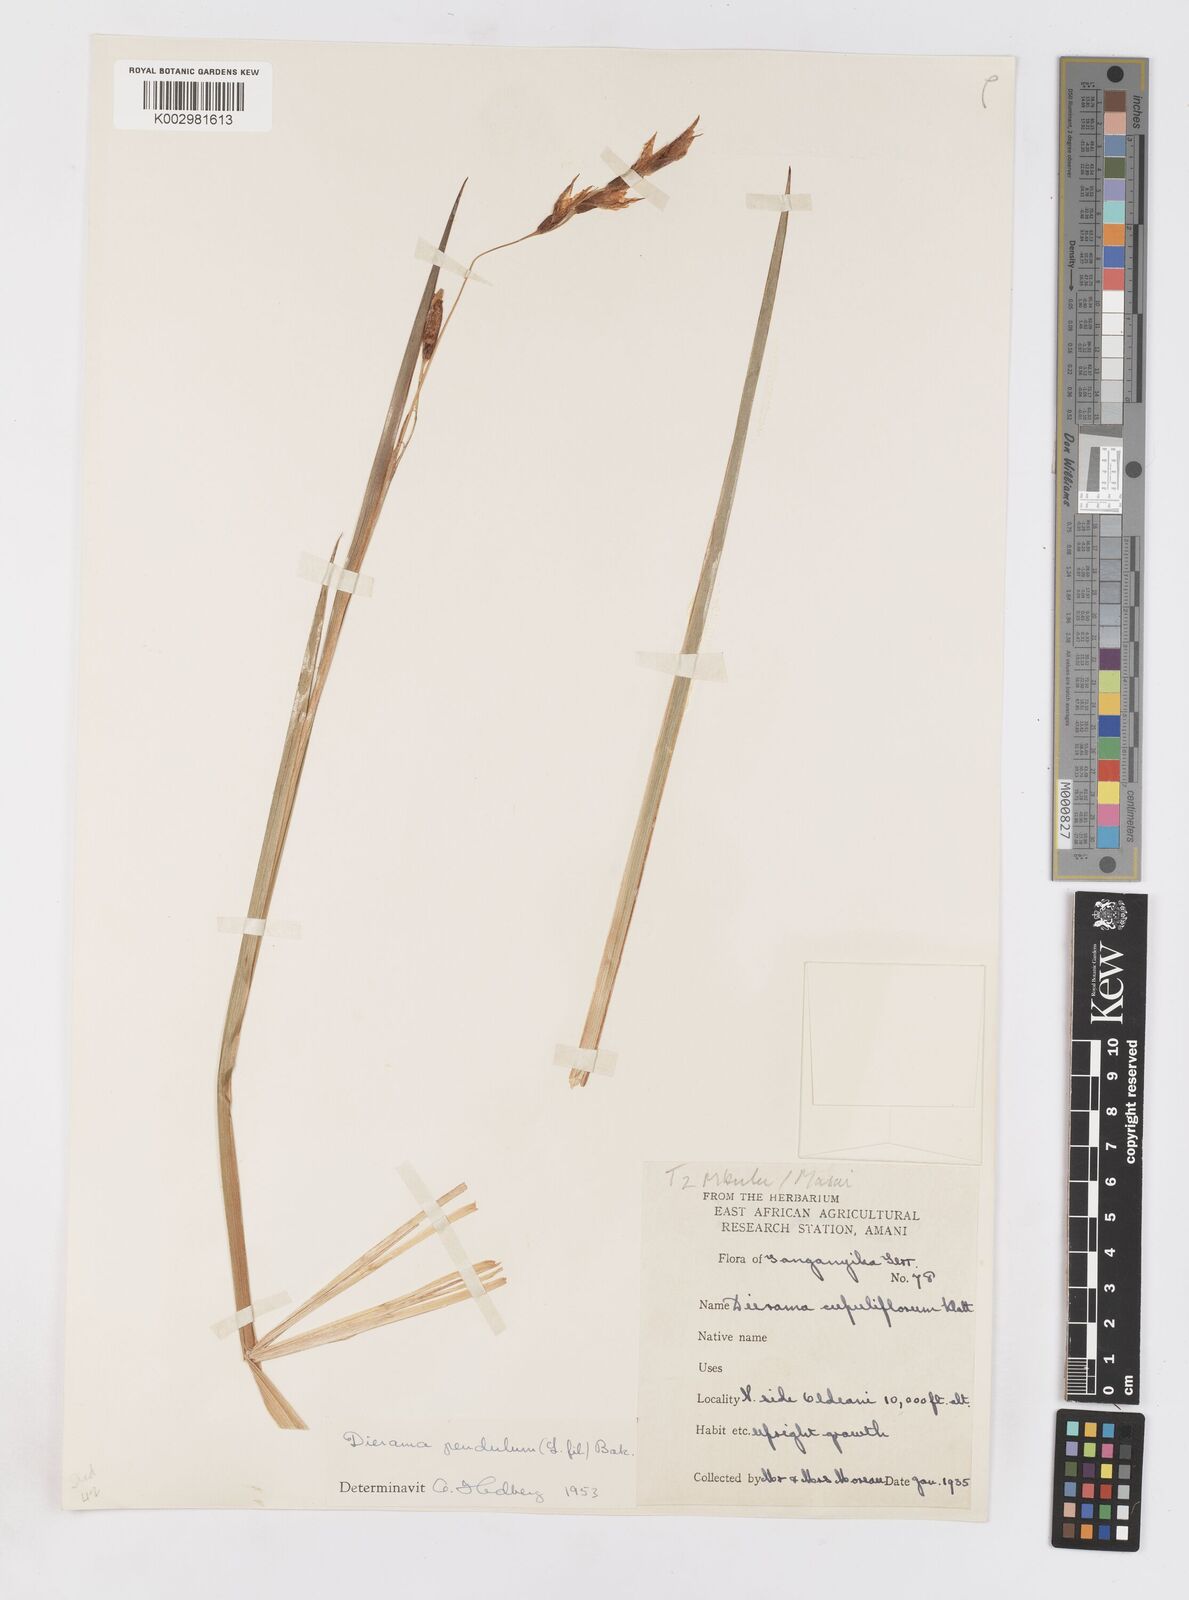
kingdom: Plantae
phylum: Tracheophyta
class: Liliopsida
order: Asparagales
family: Iridaceae
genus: Dierama
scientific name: Dierama cupuliflorum
